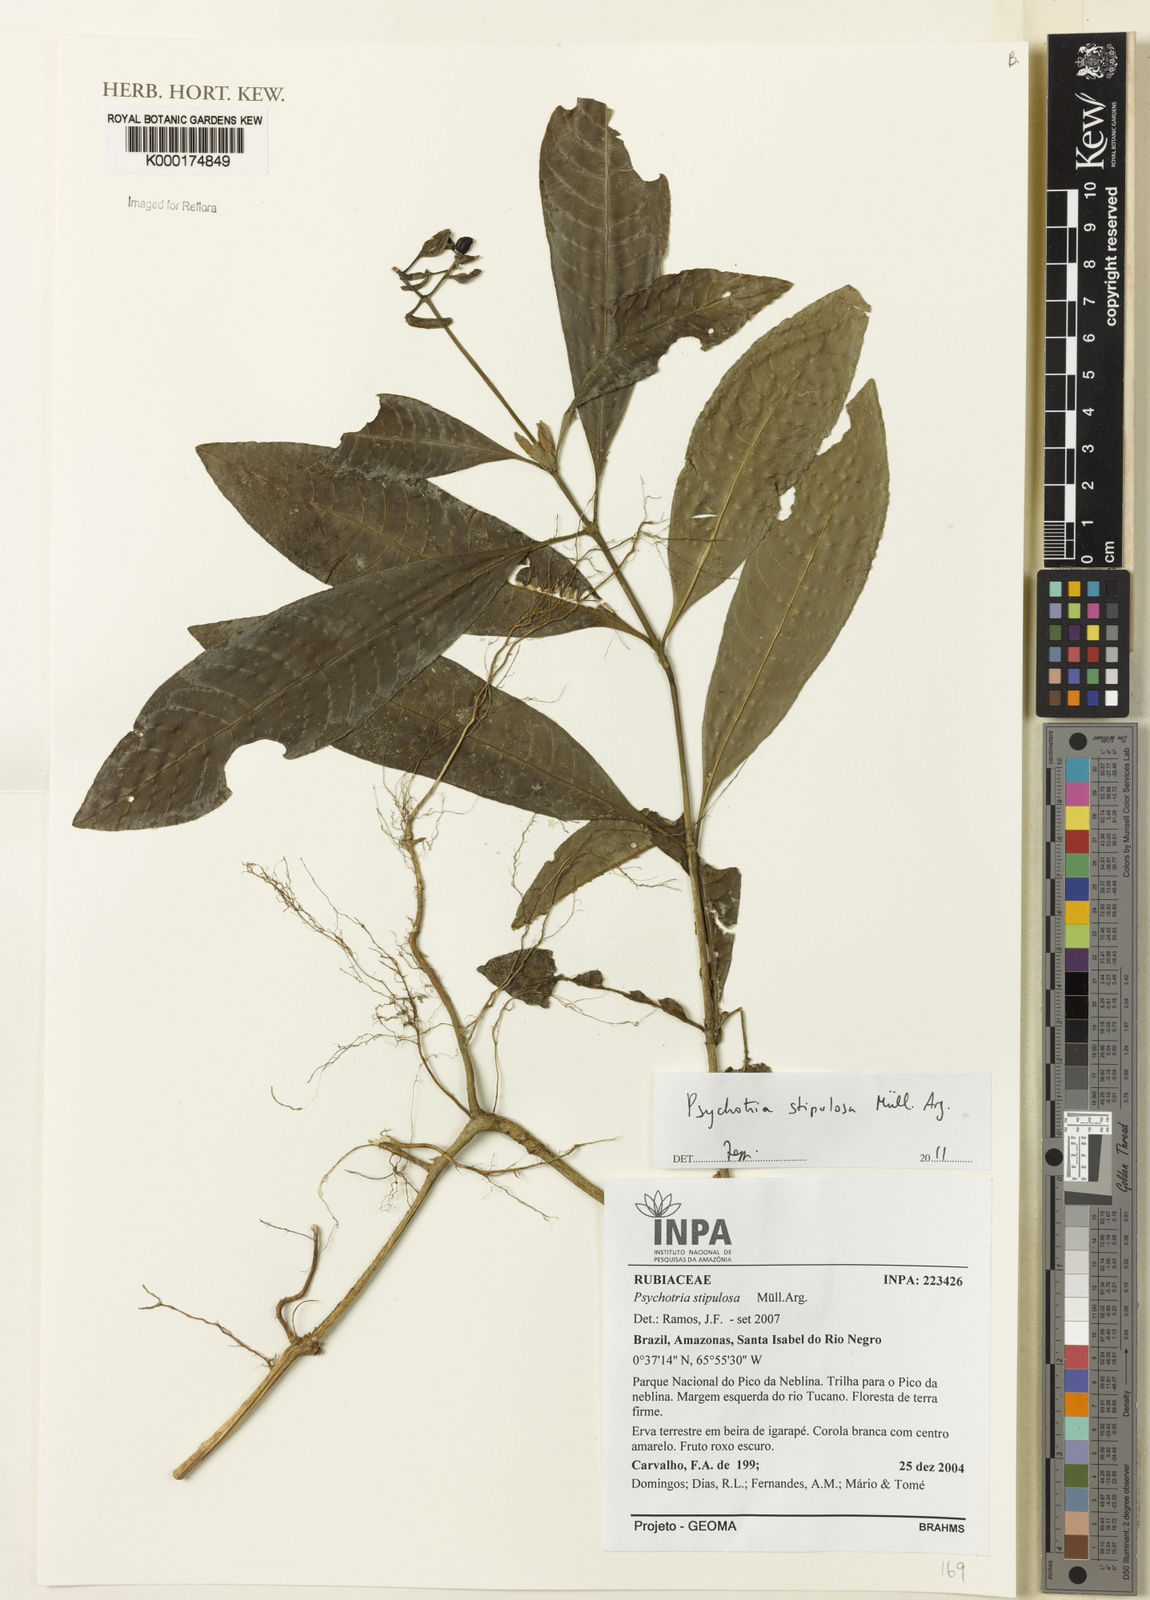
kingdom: Plantae
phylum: Tracheophyta
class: Magnoliopsida
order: Gentianales
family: Rubiaceae
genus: Psychotria
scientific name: Psychotria
